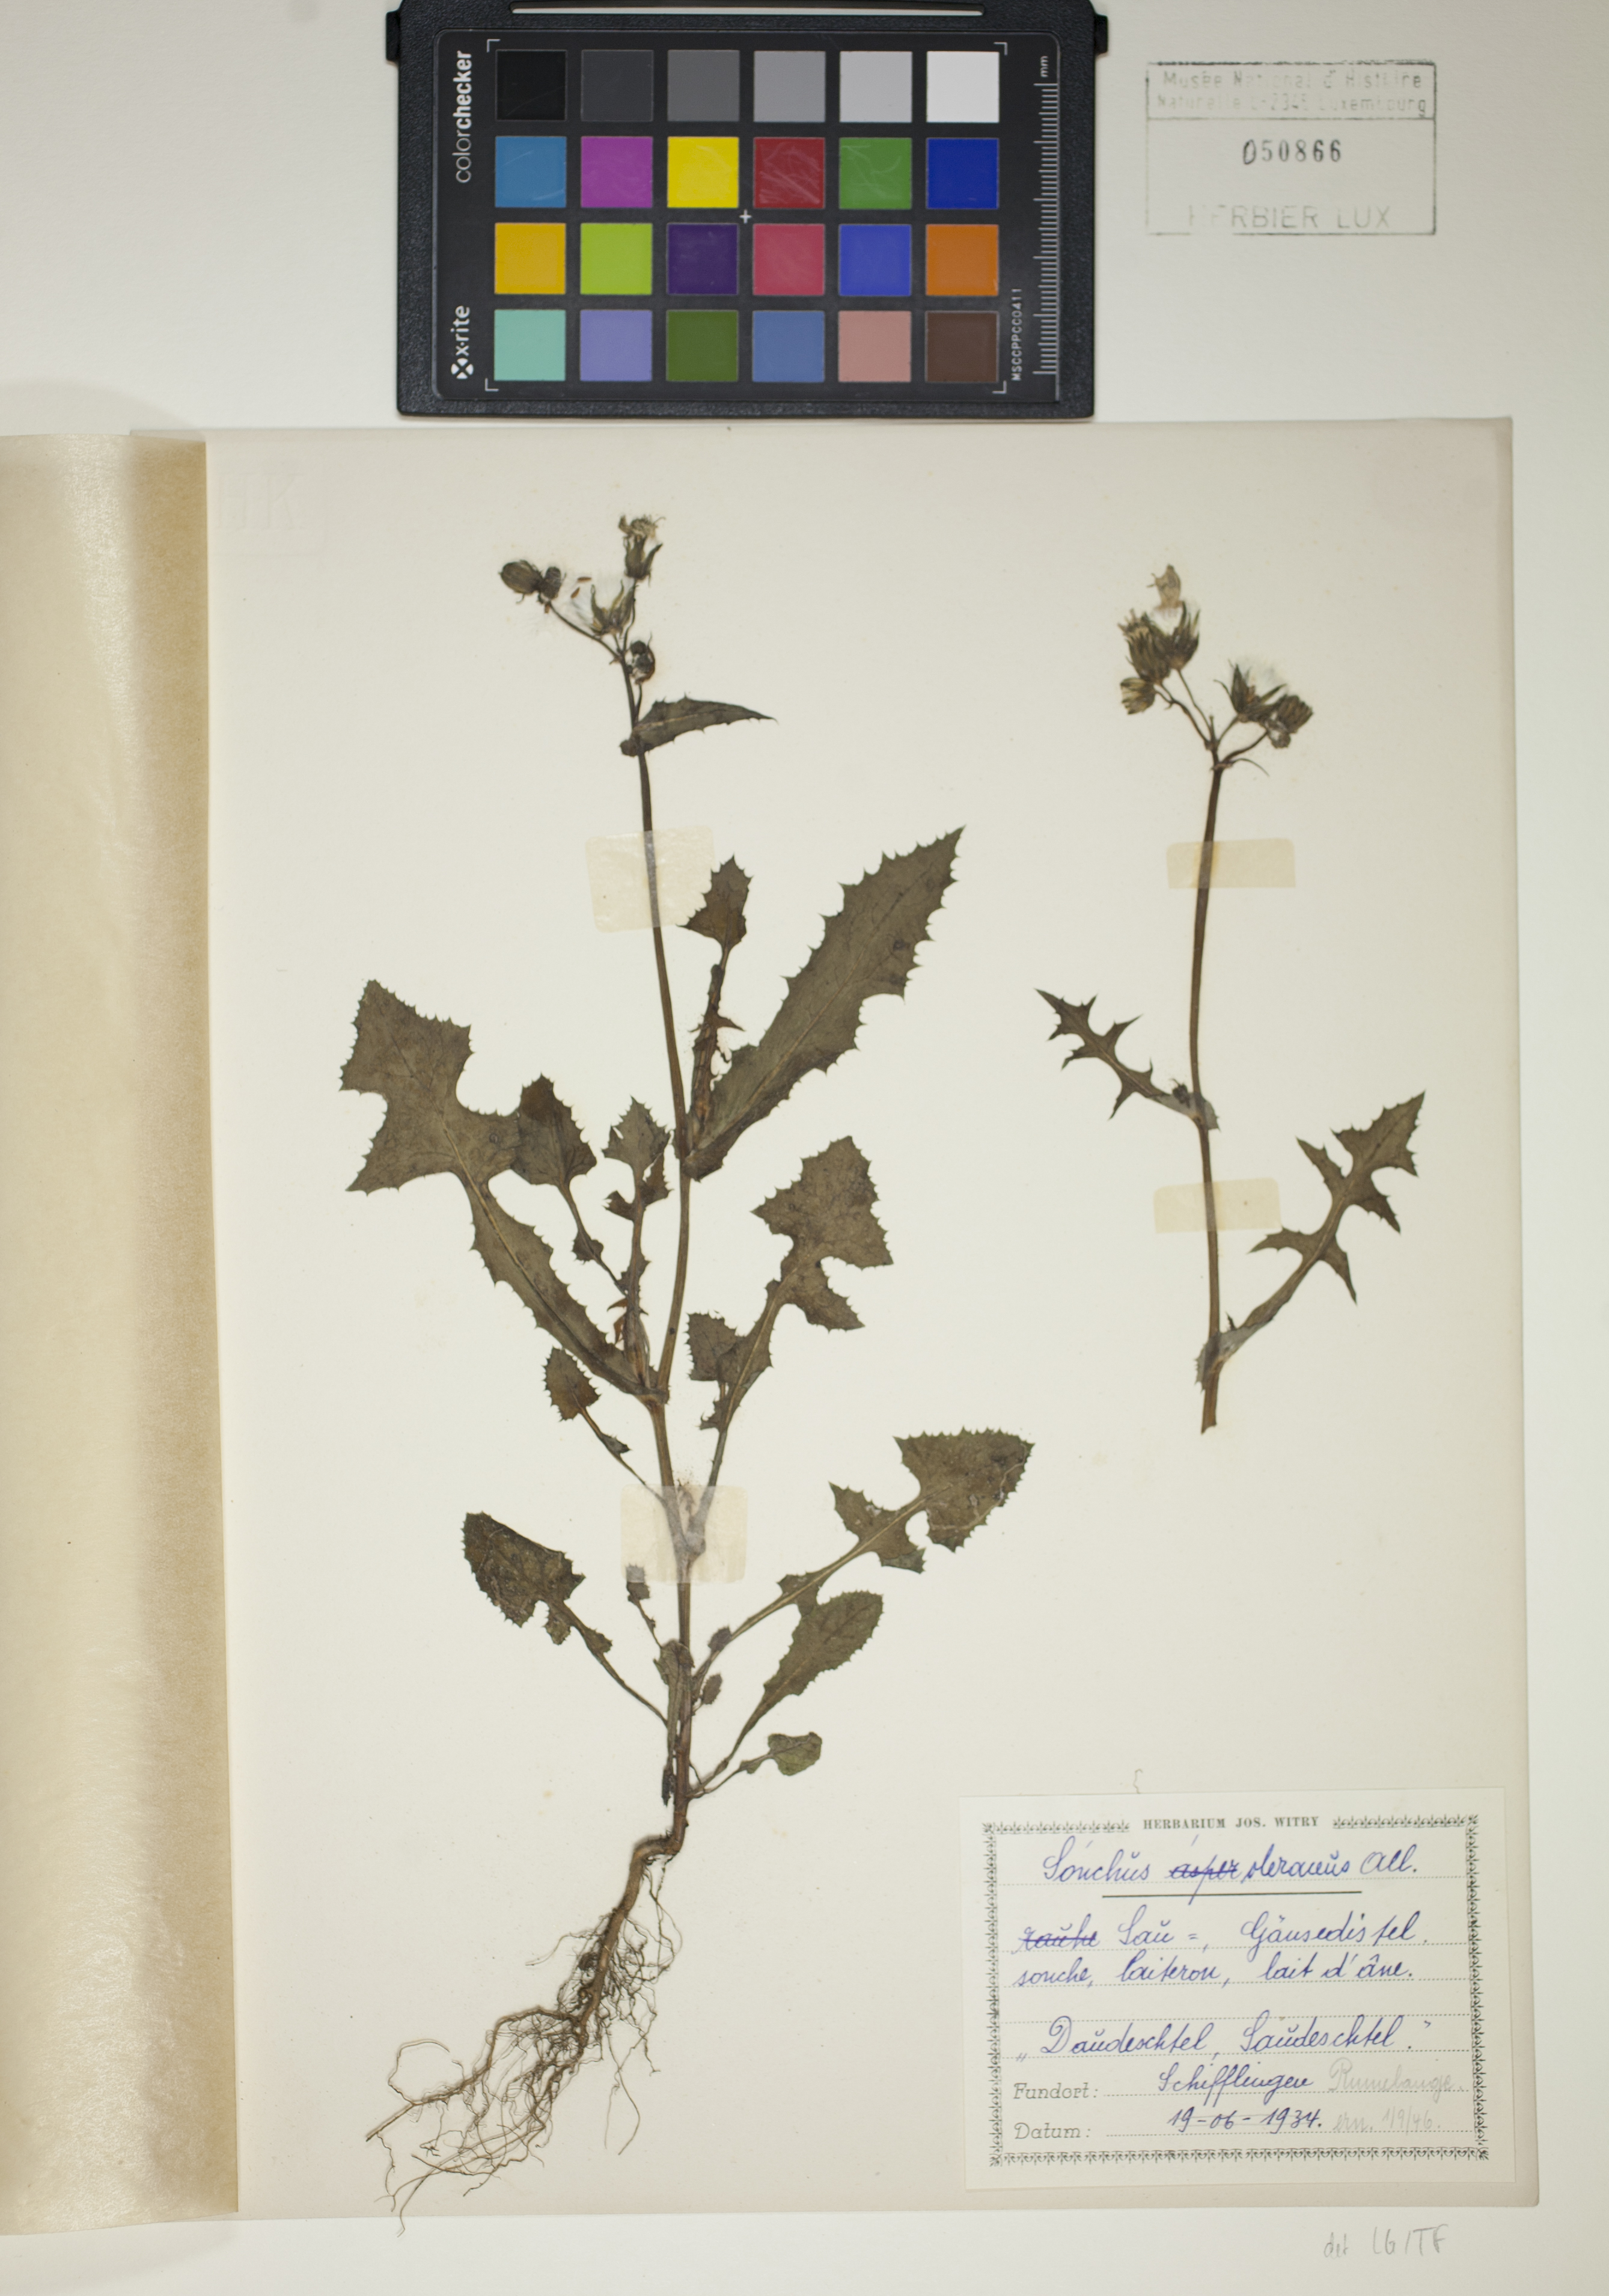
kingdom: Plantae
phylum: Tracheophyta
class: Magnoliopsida
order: Asterales
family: Asteraceae
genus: Sonchus
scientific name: Sonchus oleraceus
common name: Common sowthistle
